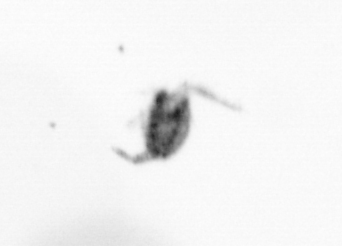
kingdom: Animalia
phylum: Arthropoda
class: Copepoda
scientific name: Copepoda
